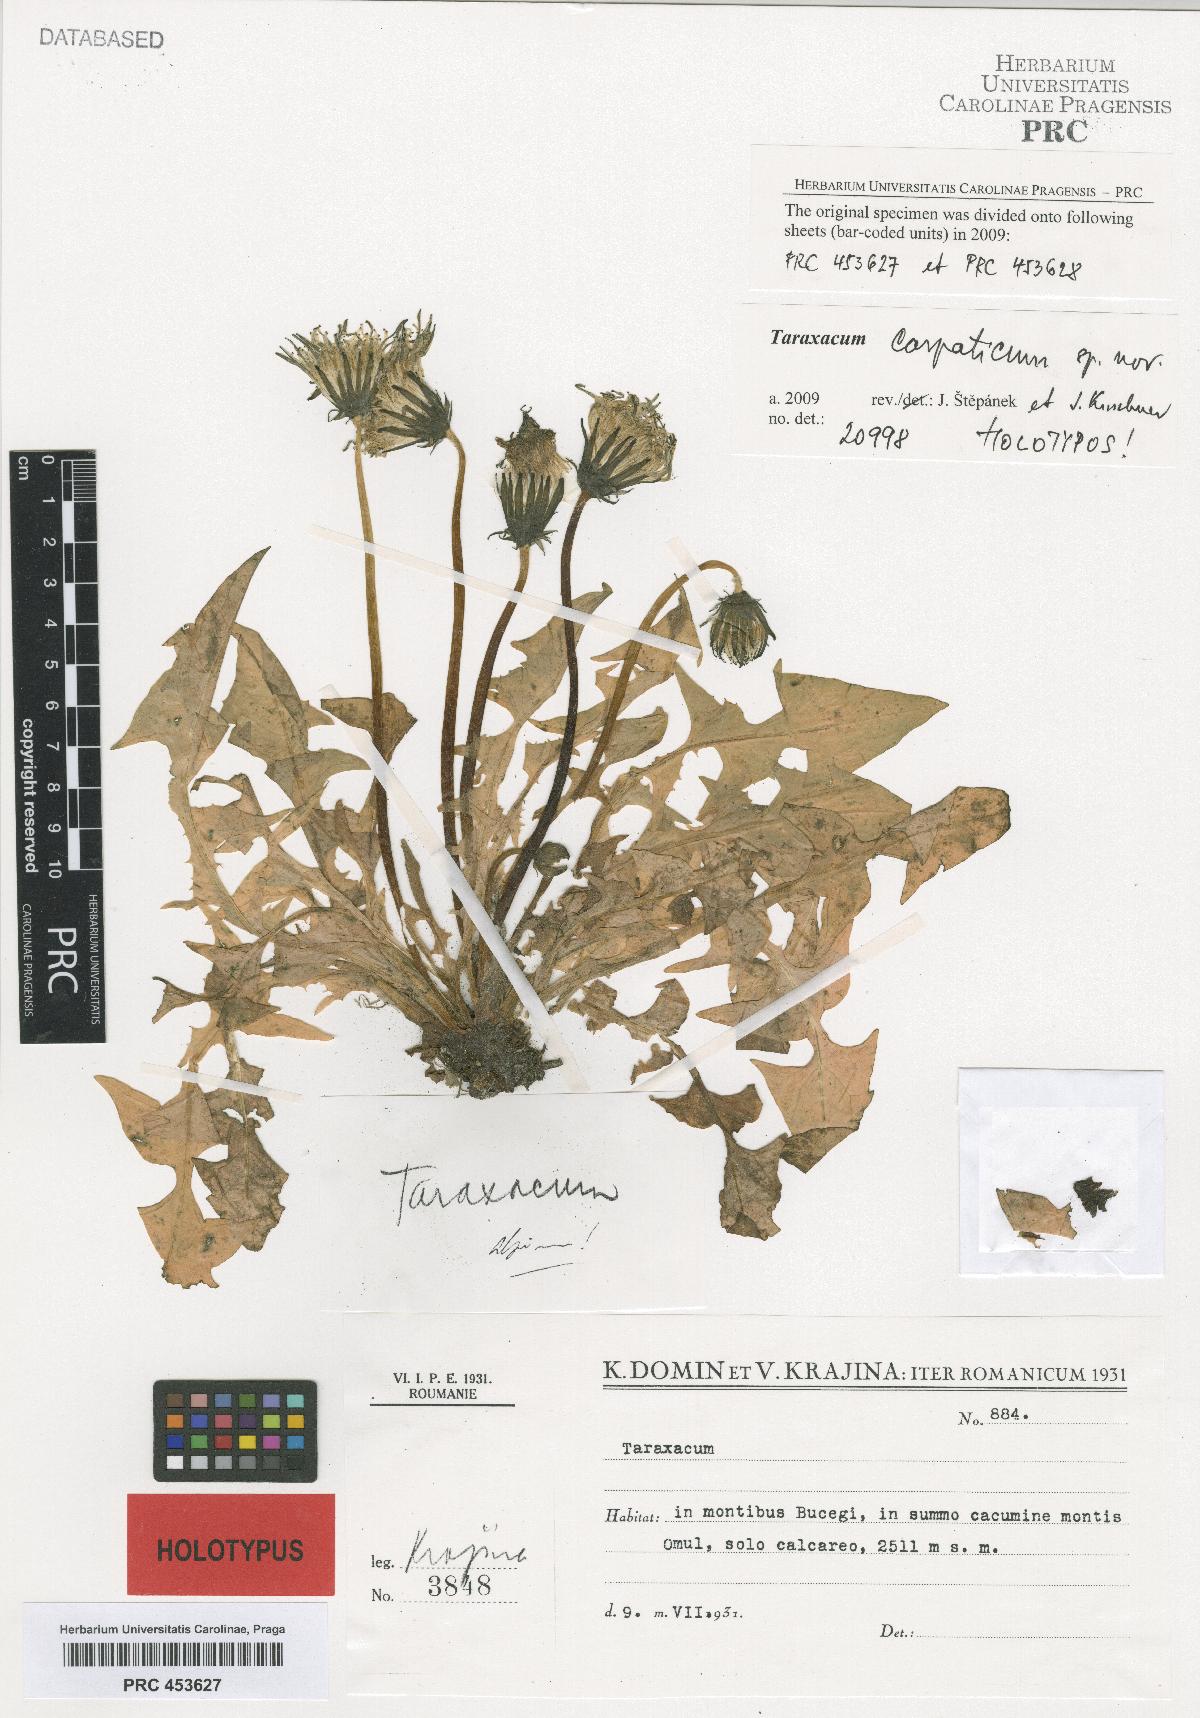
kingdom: Plantae
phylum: Tracheophyta
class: Magnoliopsida
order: Asterales
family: Asteraceae
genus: Taraxacum
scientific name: Taraxacum carpaticum
